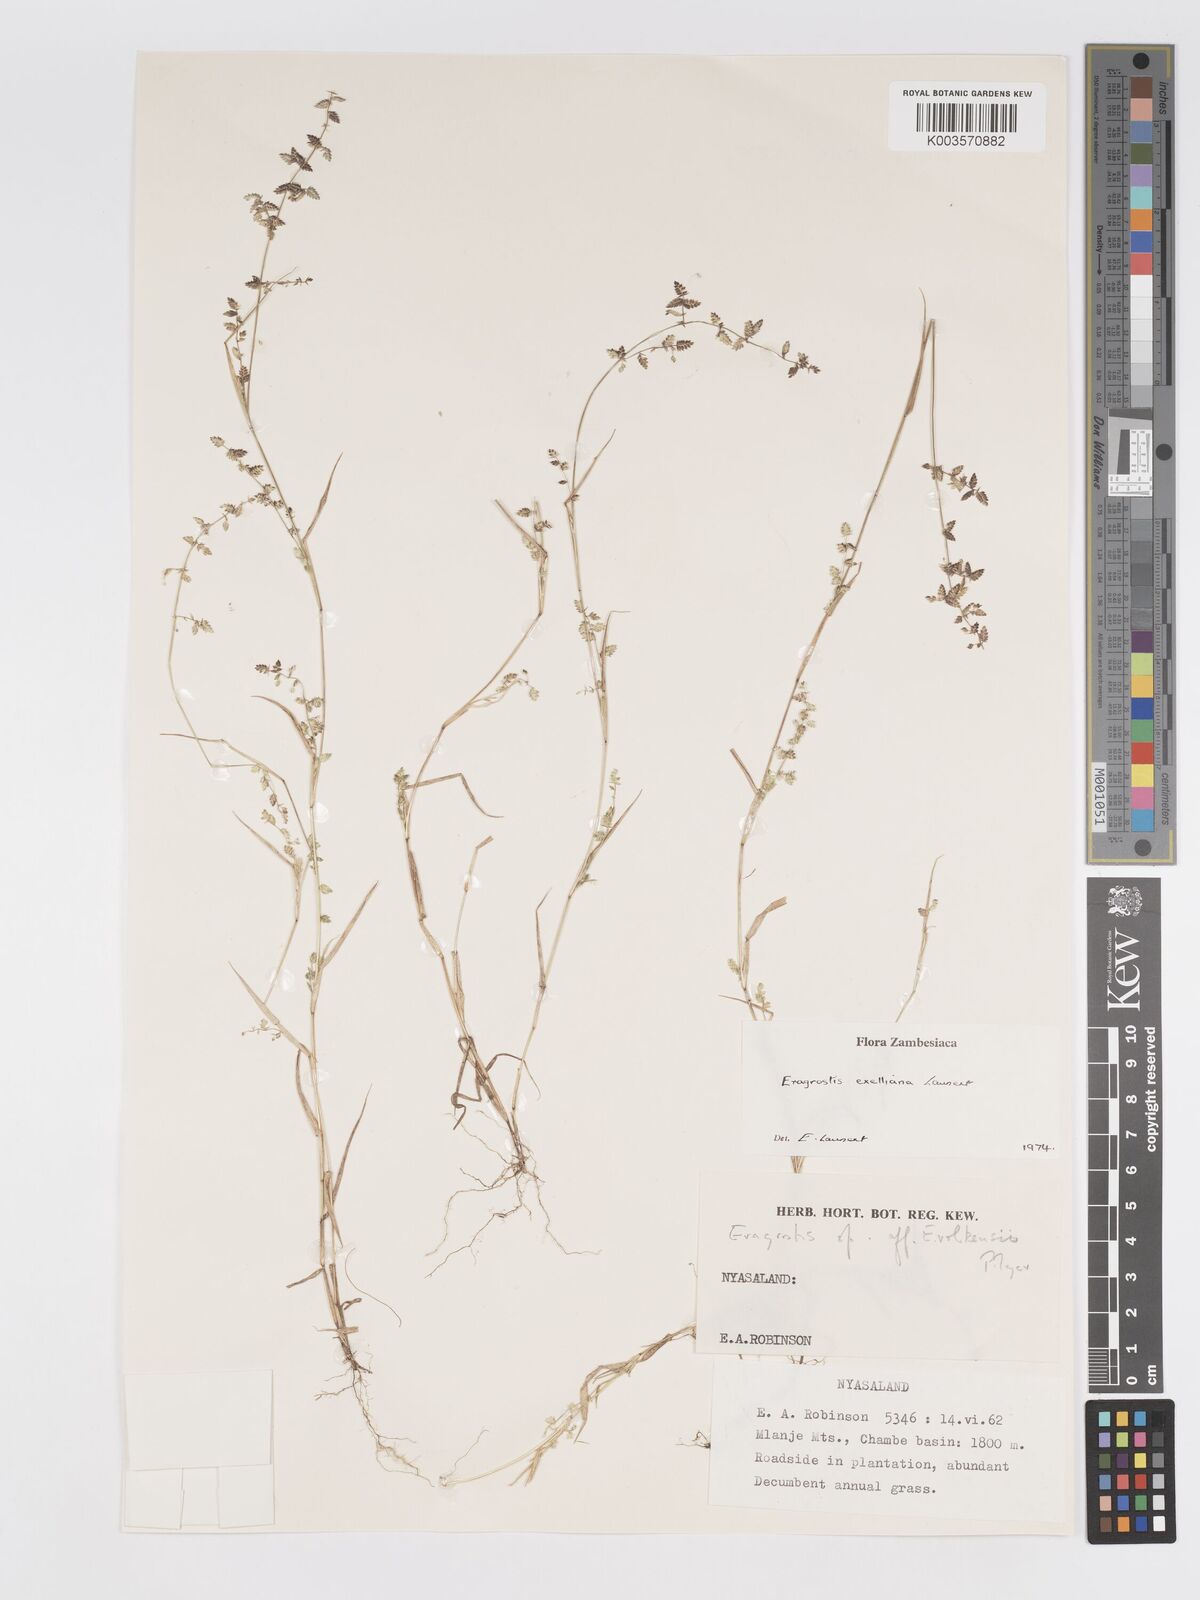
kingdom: Plantae
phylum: Tracheophyta
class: Liliopsida
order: Poales
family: Poaceae
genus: Eragrostis
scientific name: Eragrostis exelliana
